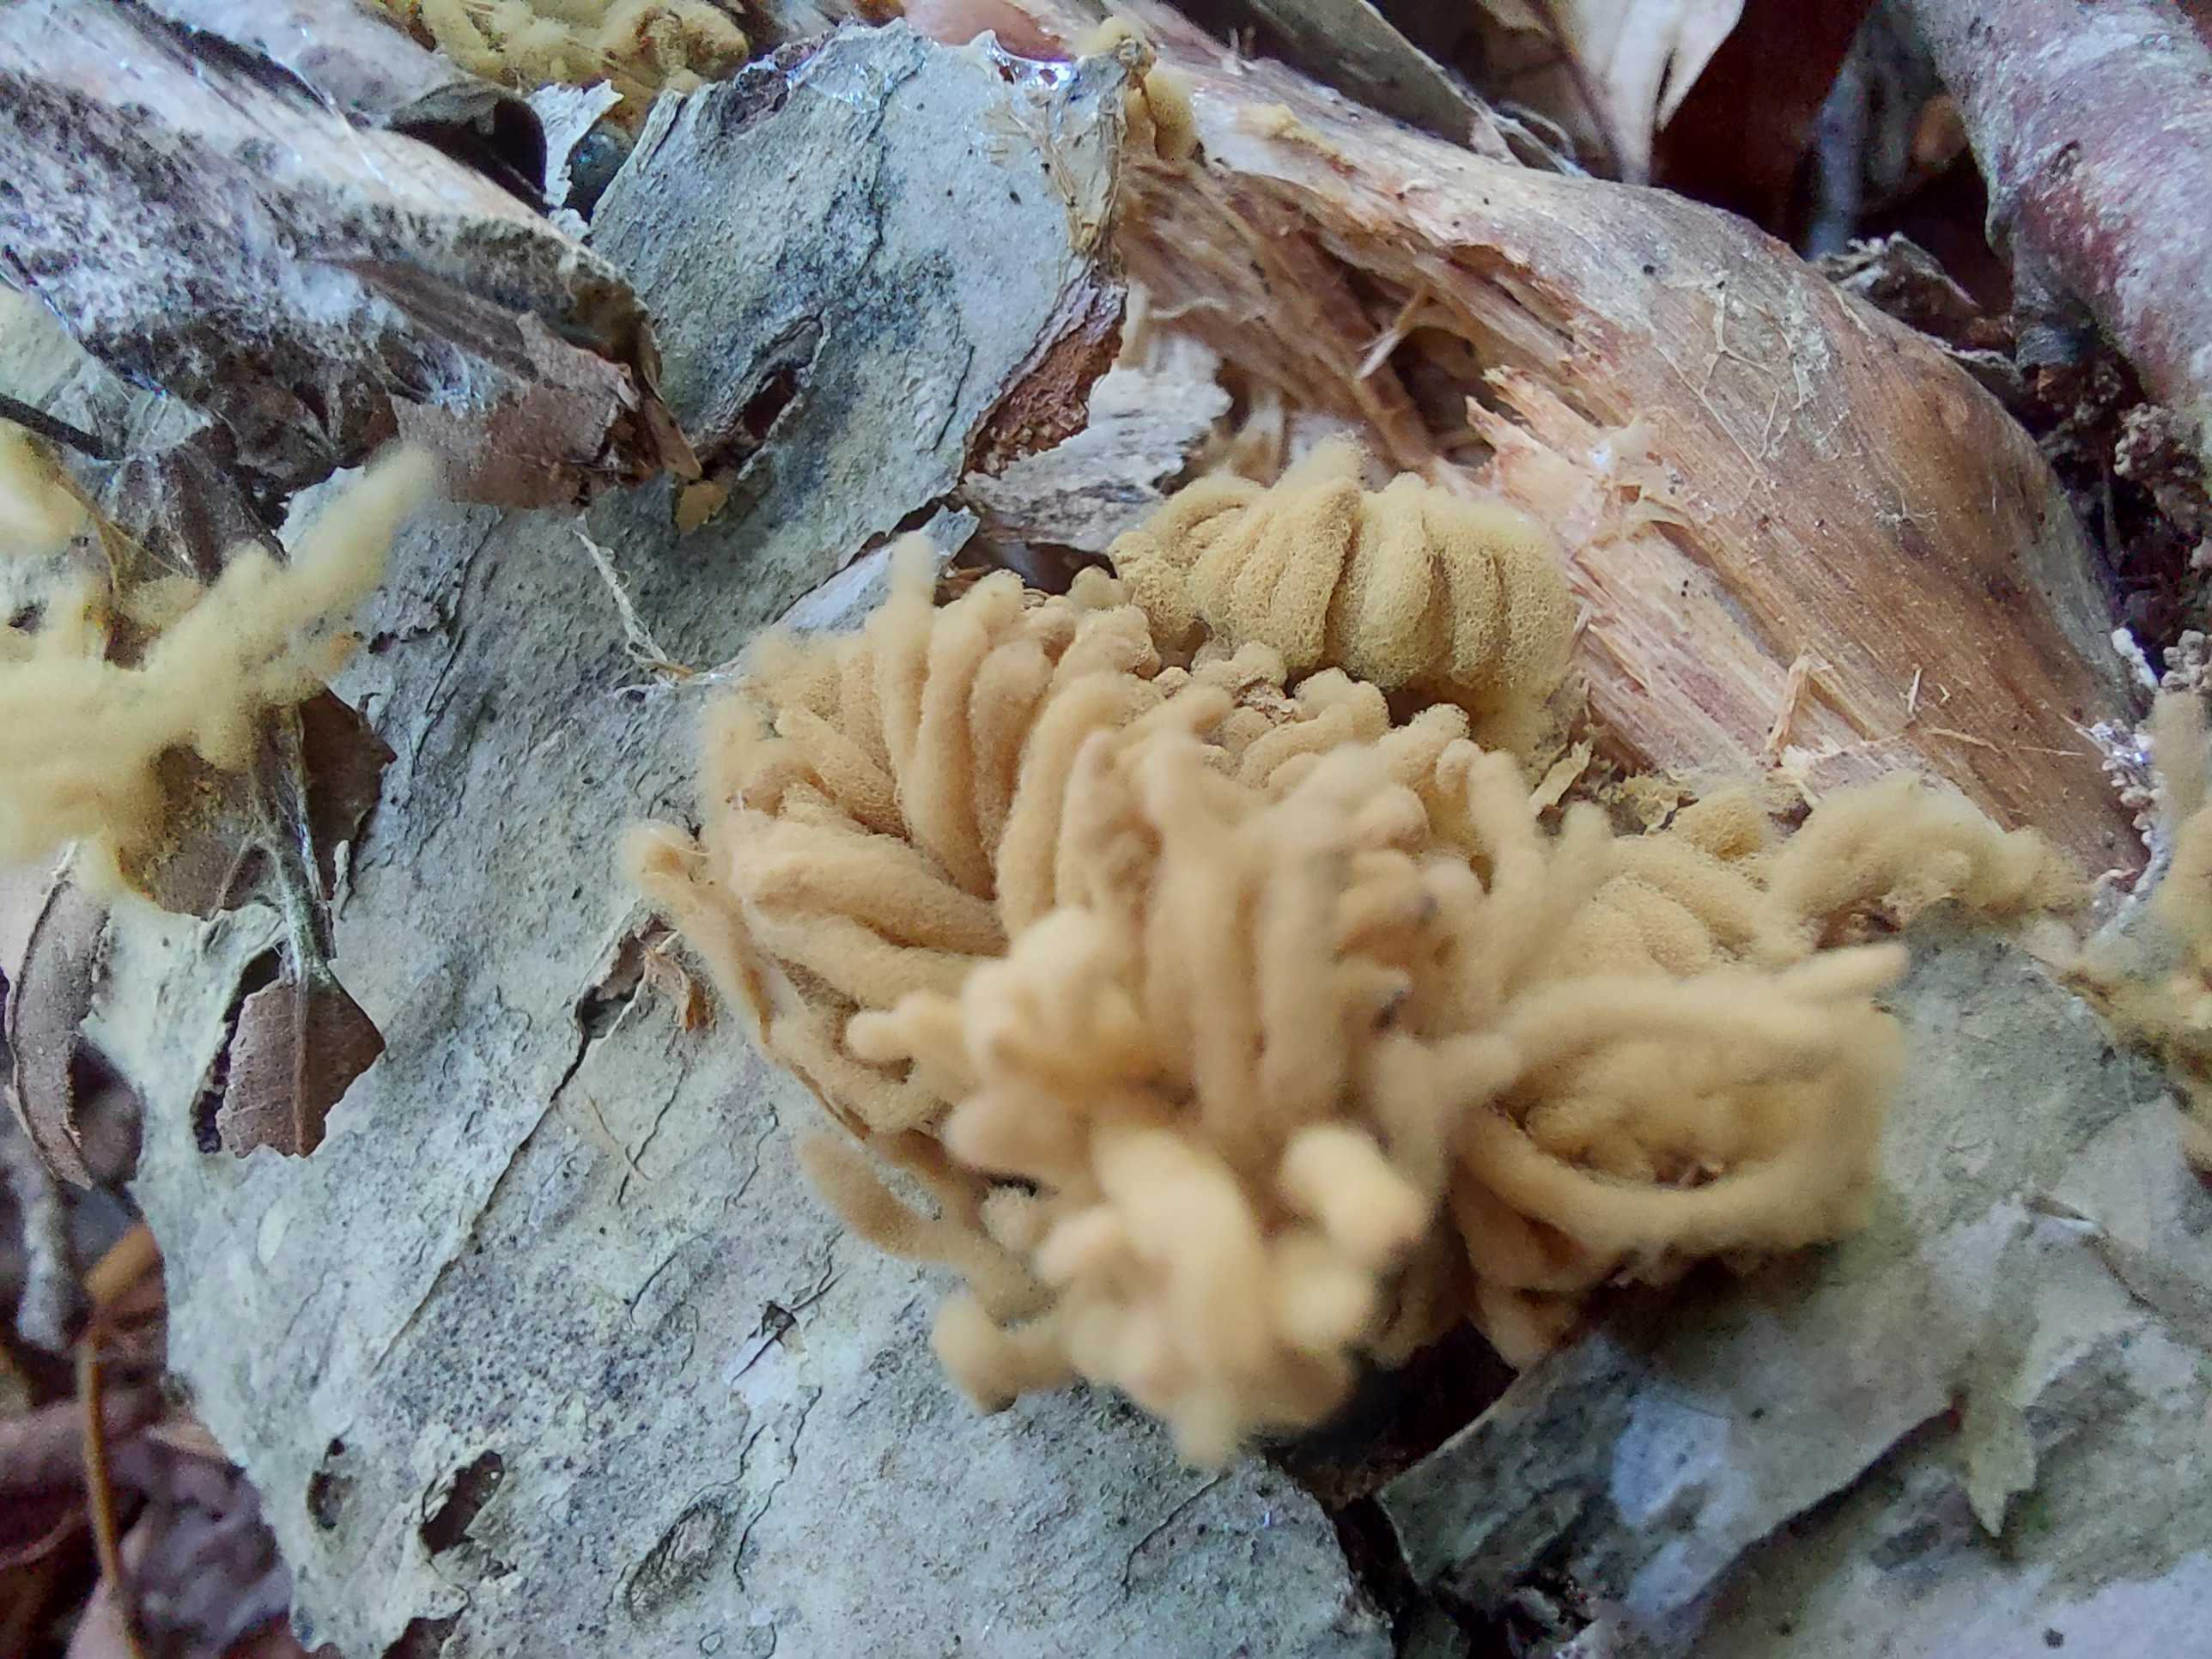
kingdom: Protozoa
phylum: Mycetozoa
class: Myxomycetes
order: Trichiales
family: Arcyriaceae
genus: Arcyria
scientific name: Arcyria obvelata
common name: okkergul skålsvøb
